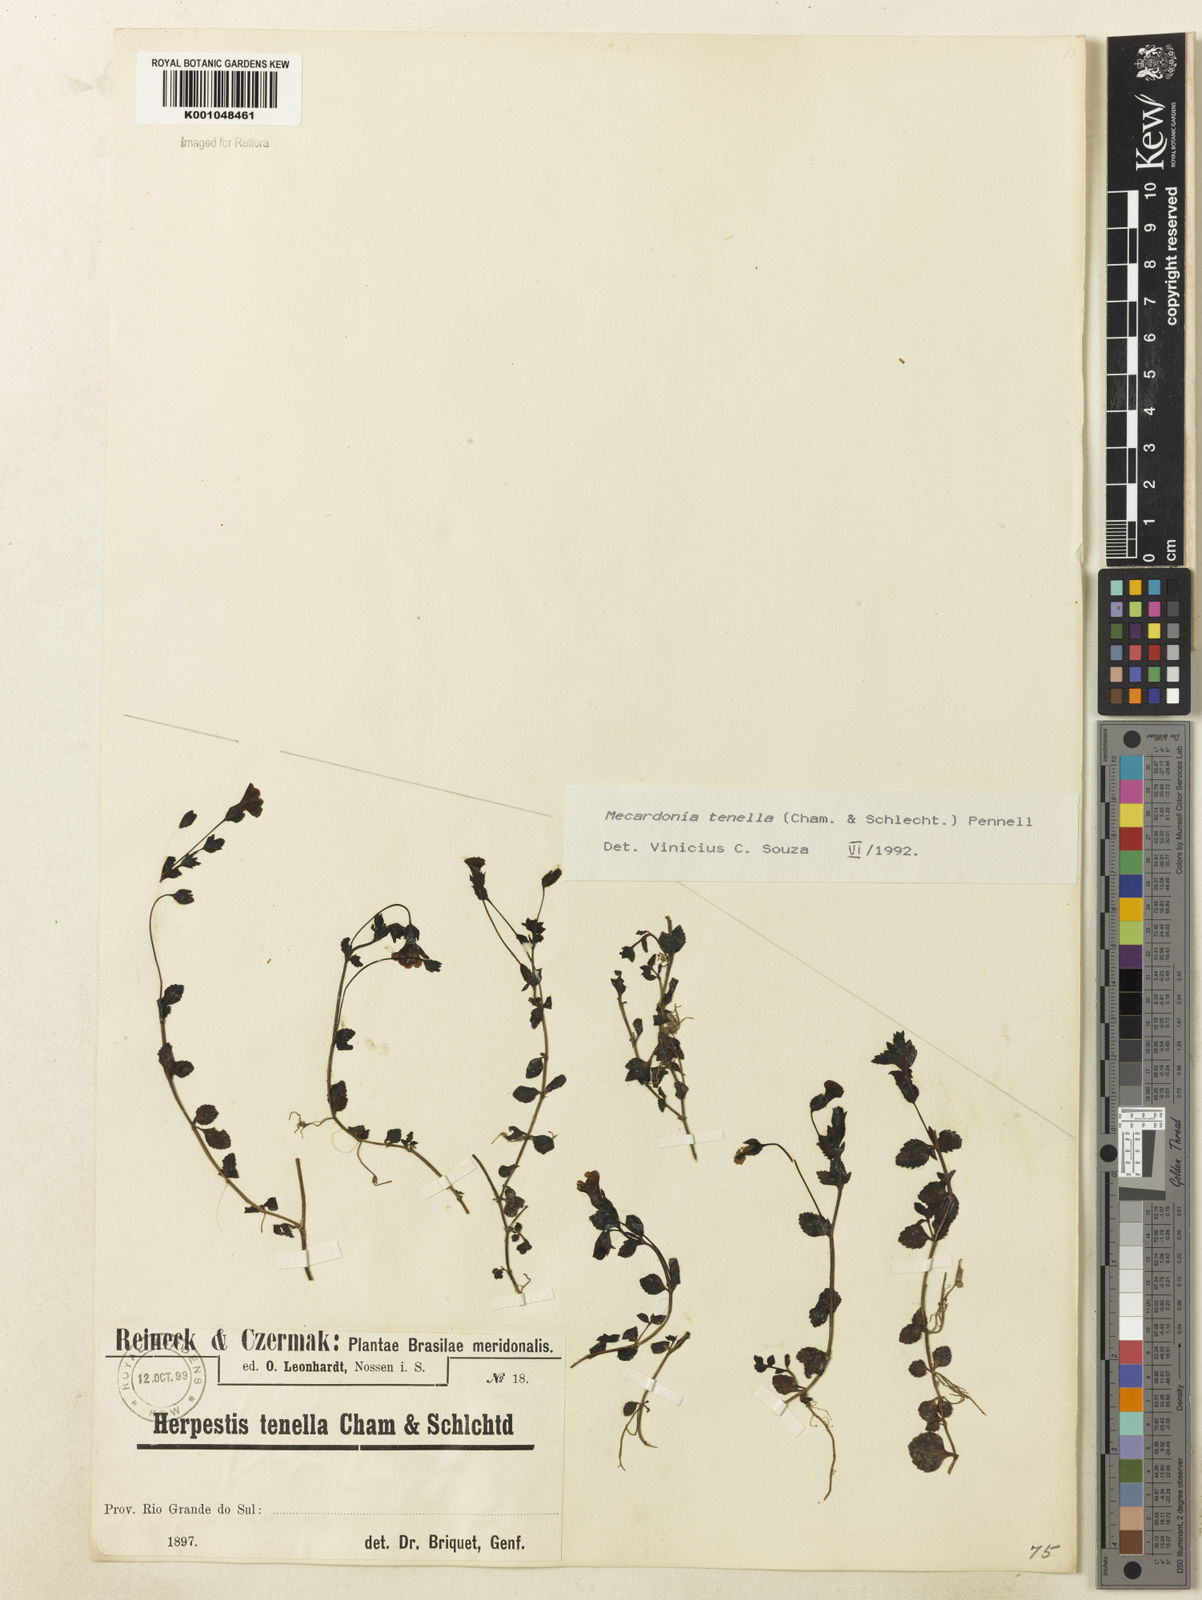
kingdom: Plantae
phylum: Tracheophyta
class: Magnoliopsida
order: Lamiales
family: Plantaginaceae
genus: Mecardonia
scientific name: Mecardonia procumbens
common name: Baby jump-up
